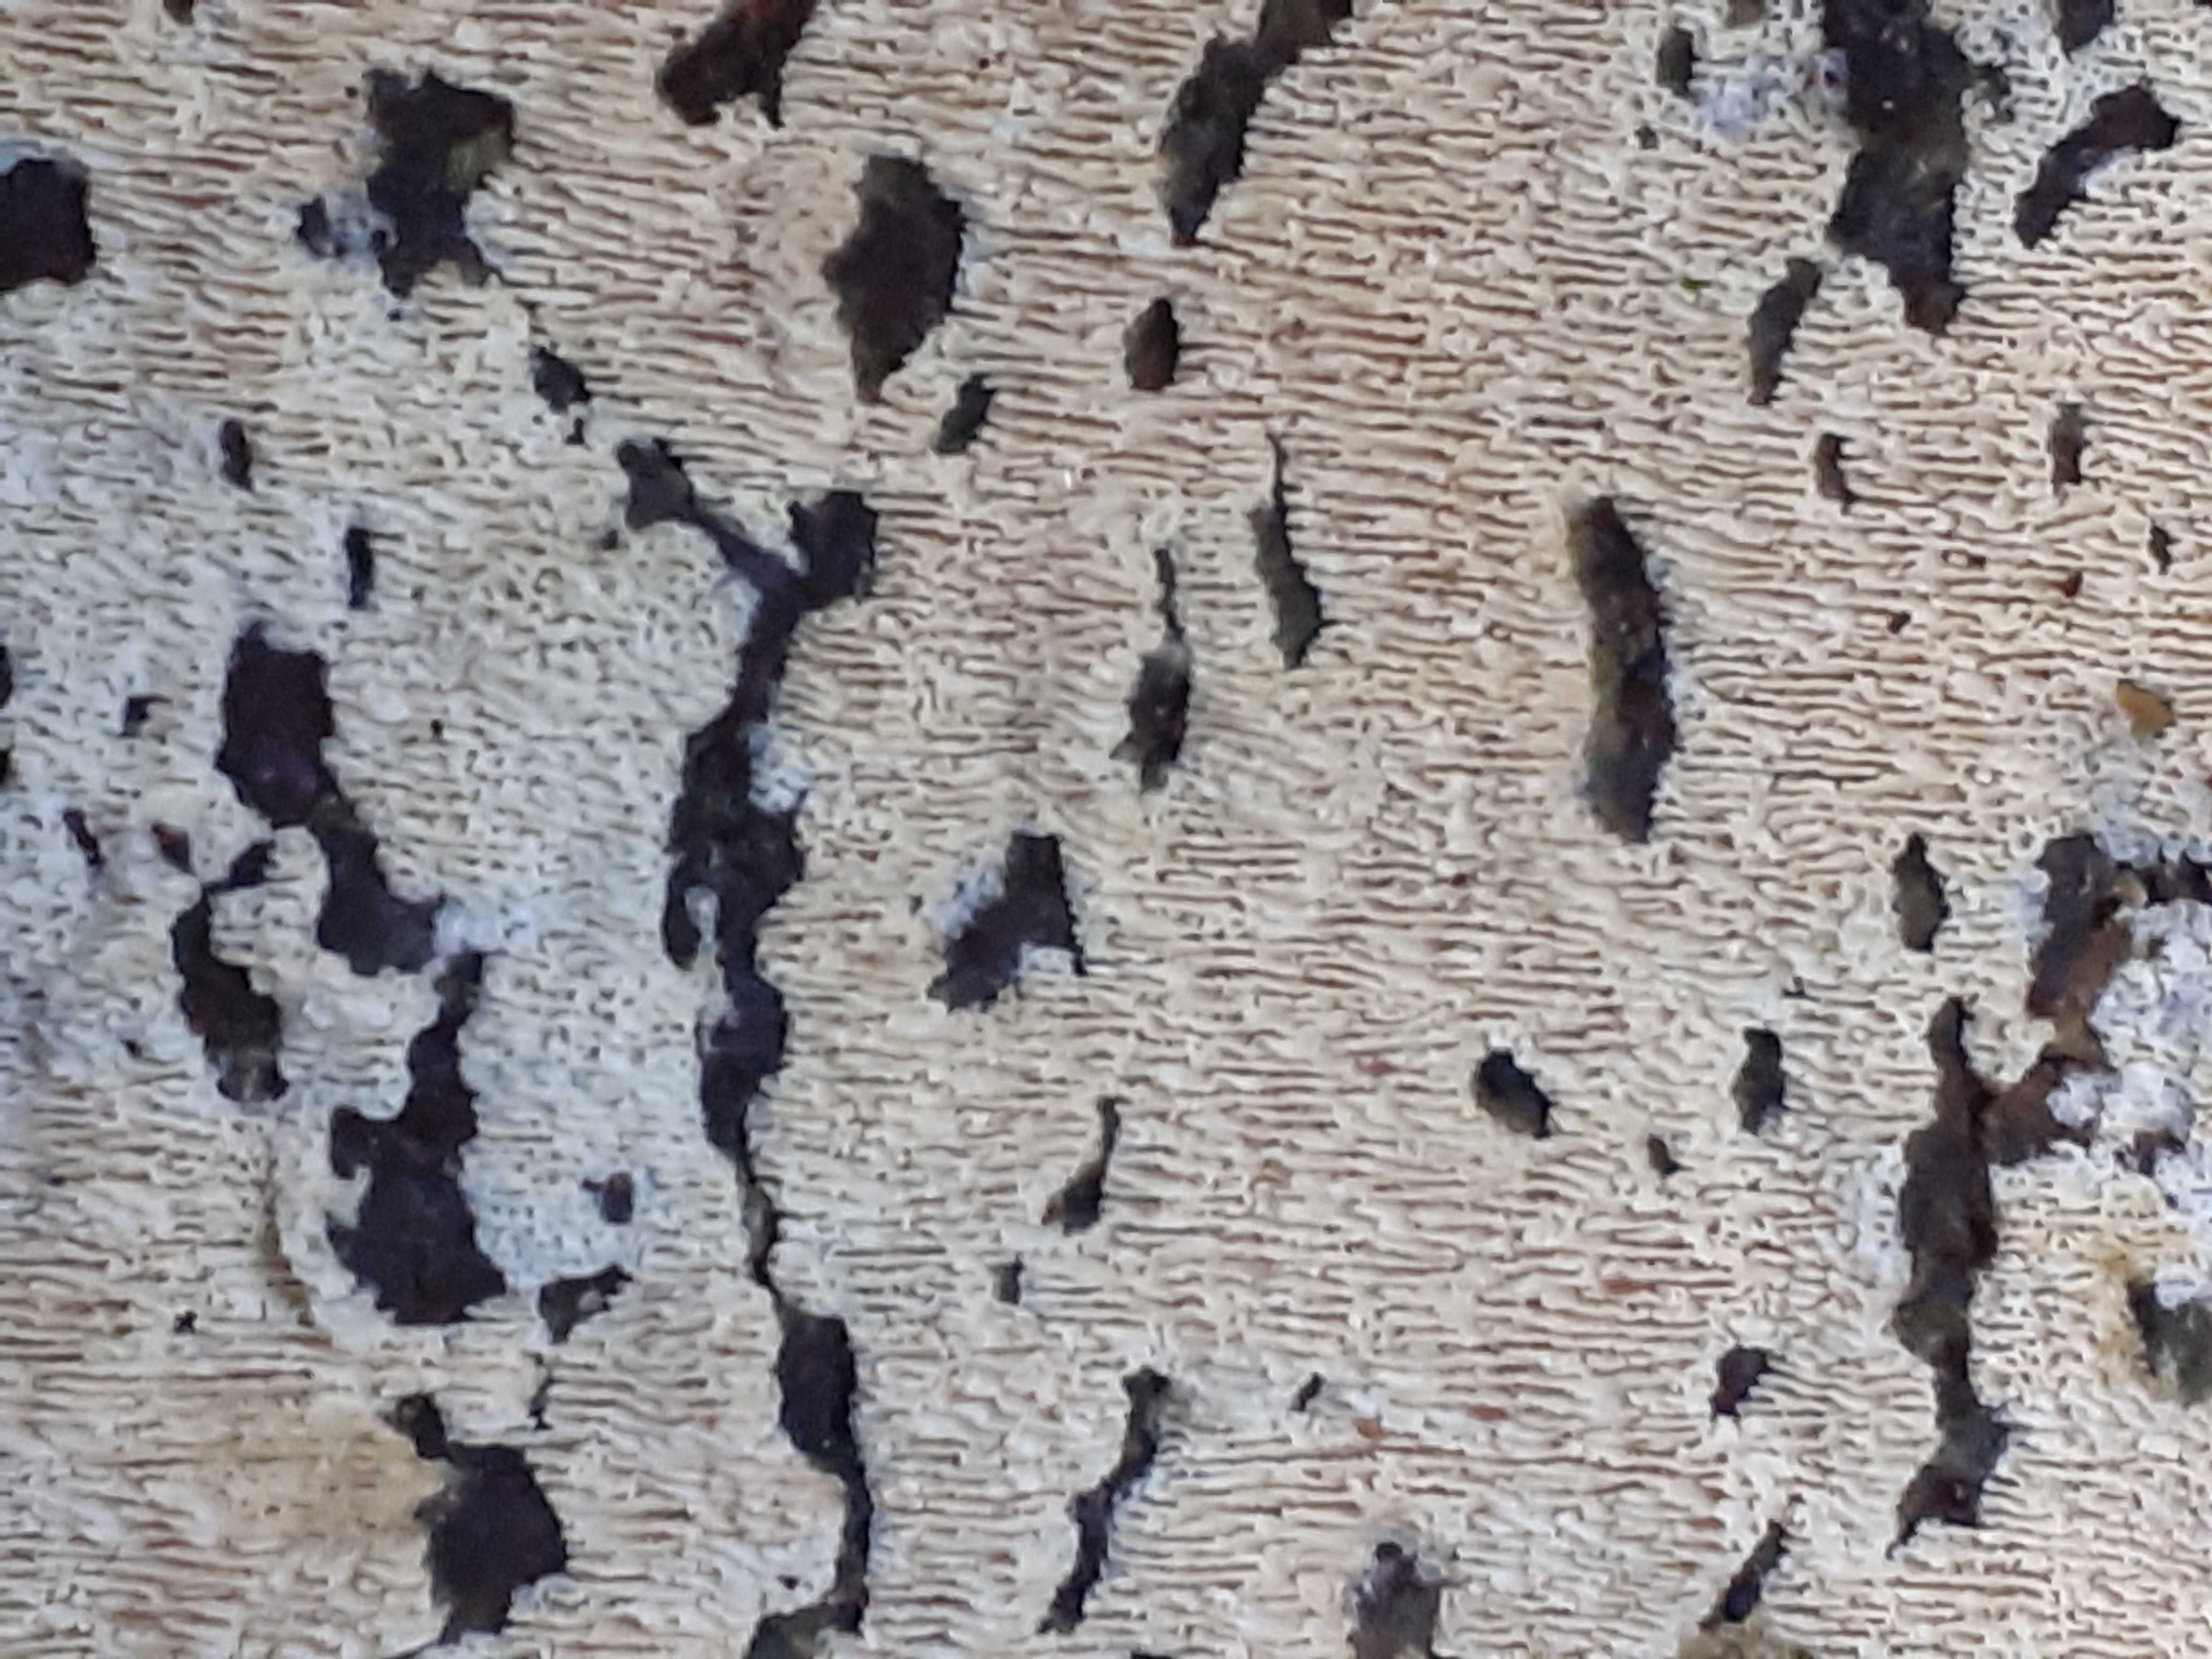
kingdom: Fungi
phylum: Basidiomycota
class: Agaricomycetes
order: Hymenochaetales
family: Schizoporaceae
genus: Schizopora
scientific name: Schizopora paradoxa
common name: hvid tandsvamp
